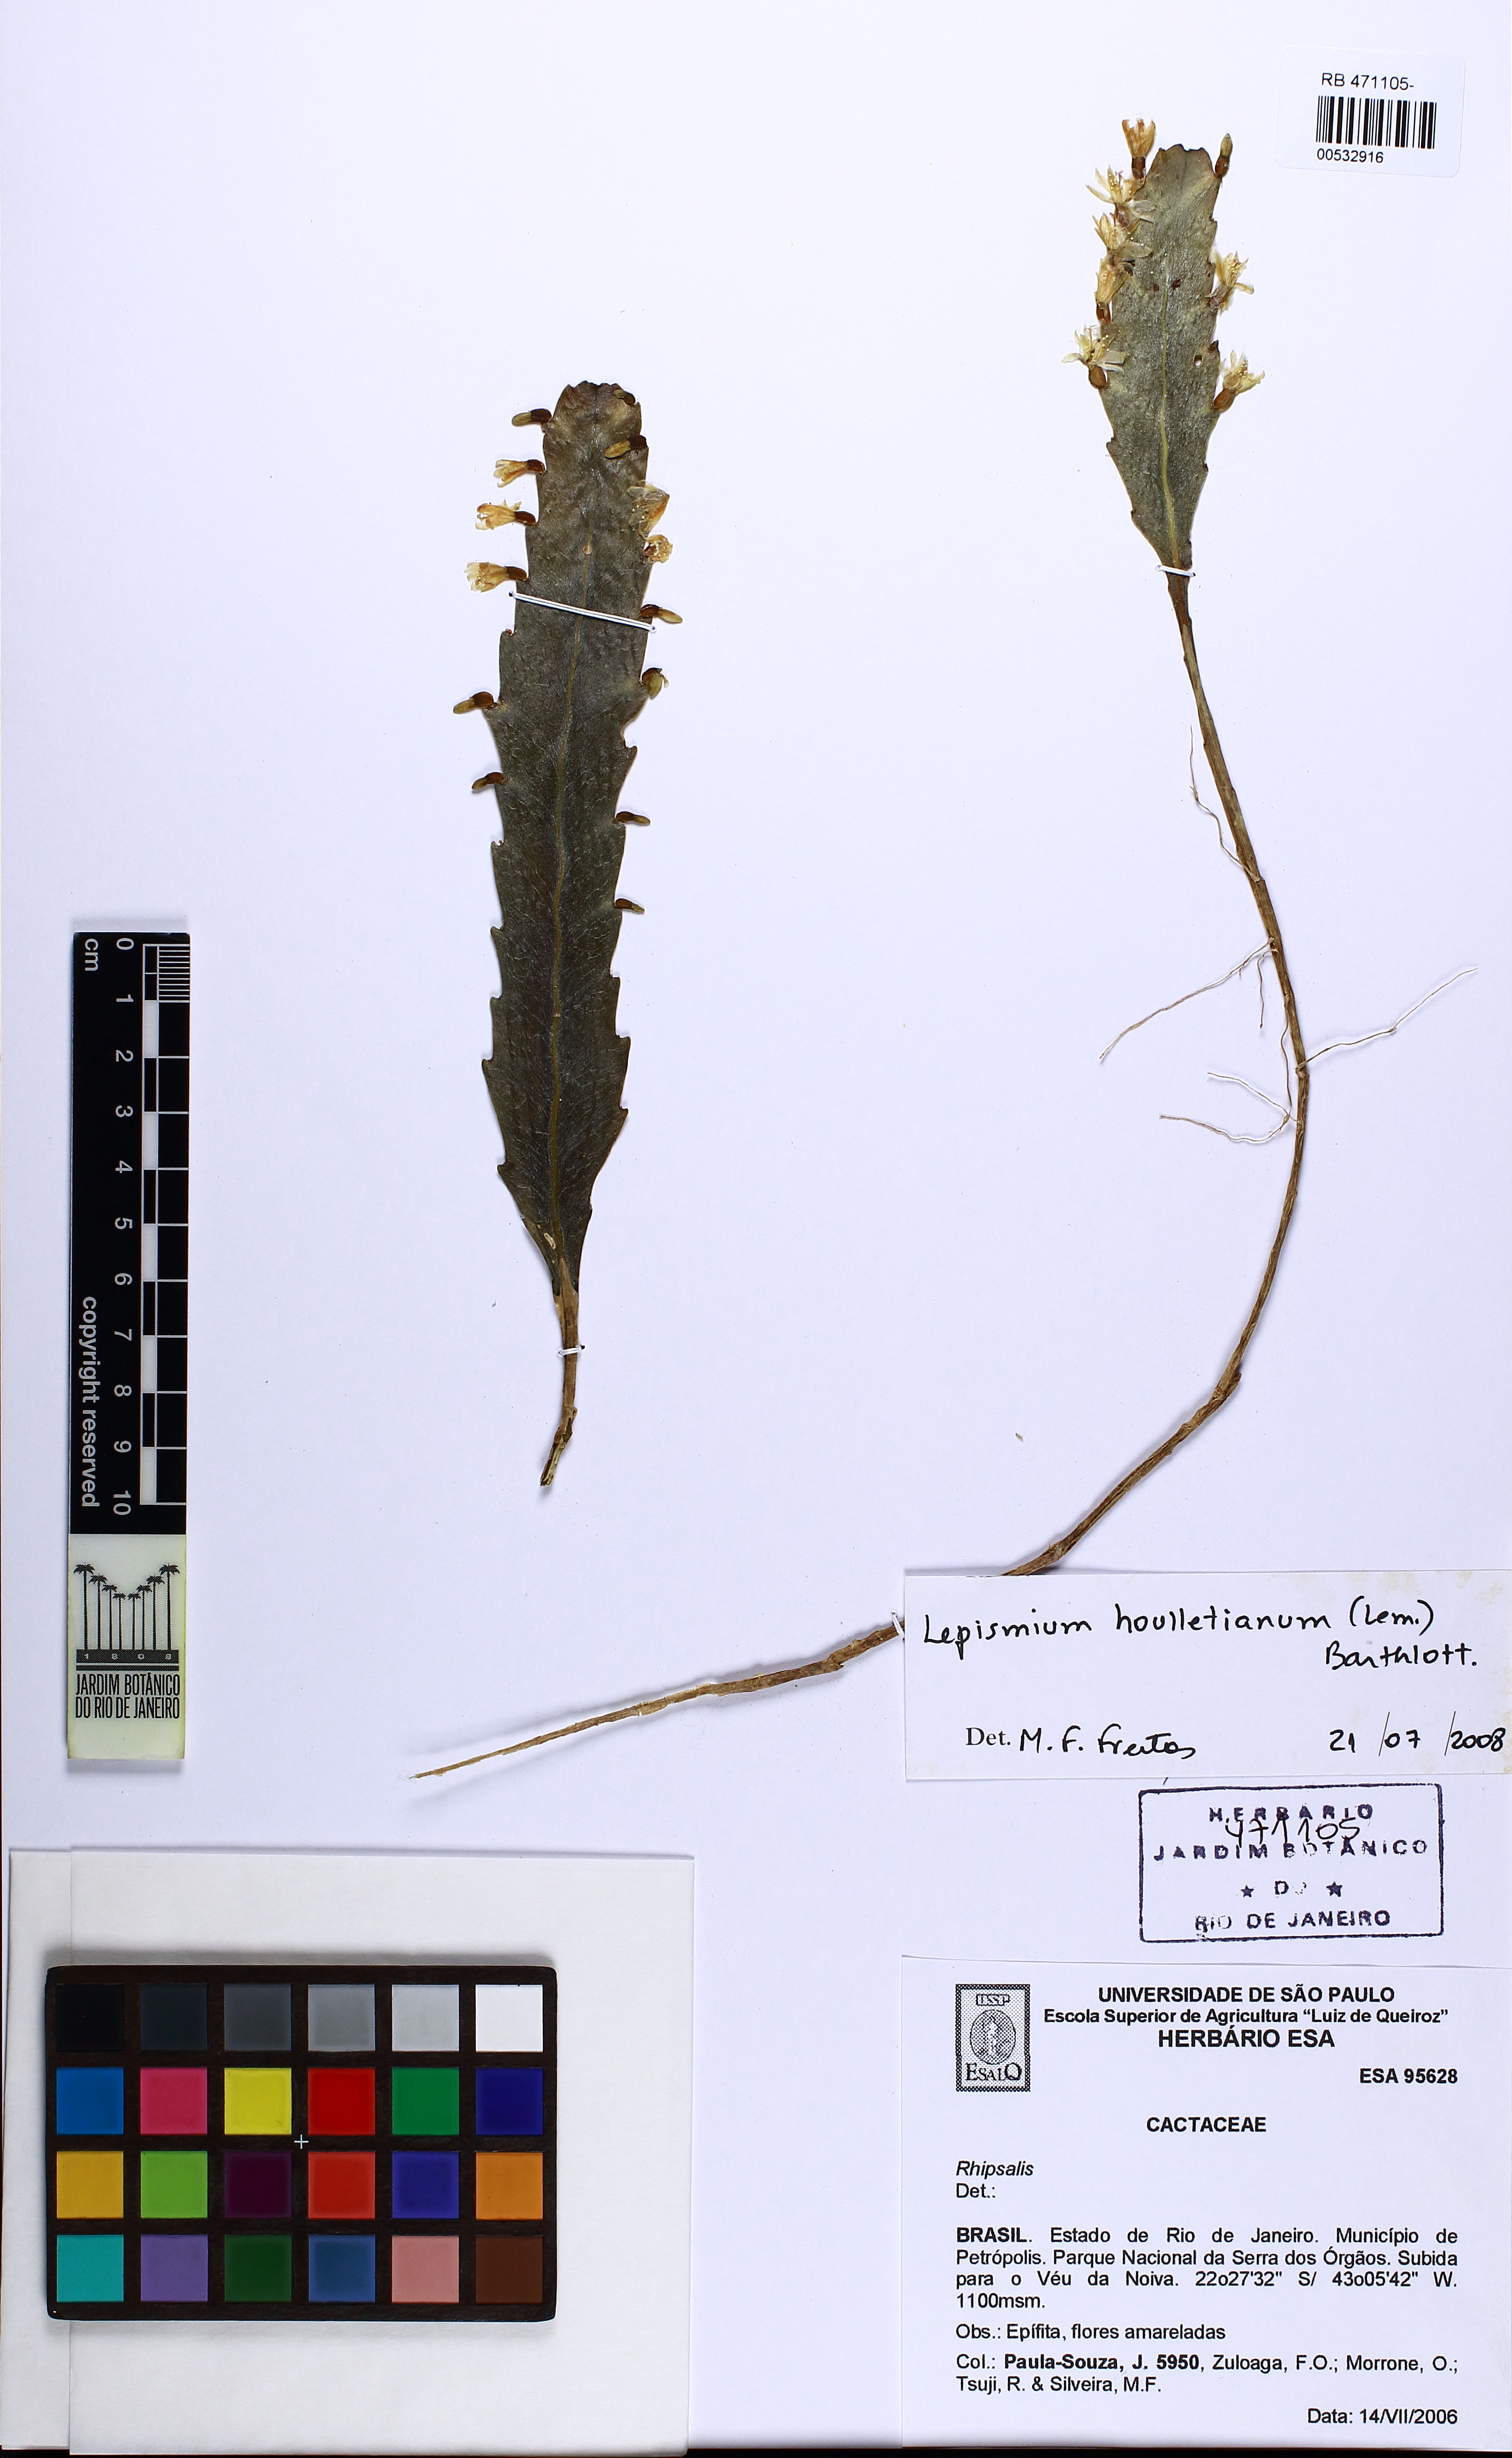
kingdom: Plantae
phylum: Tracheophyta
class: Magnoliopsida
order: Caryophyllales
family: Cactaceae
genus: Lepismium
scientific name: Lepismium houlletianum
